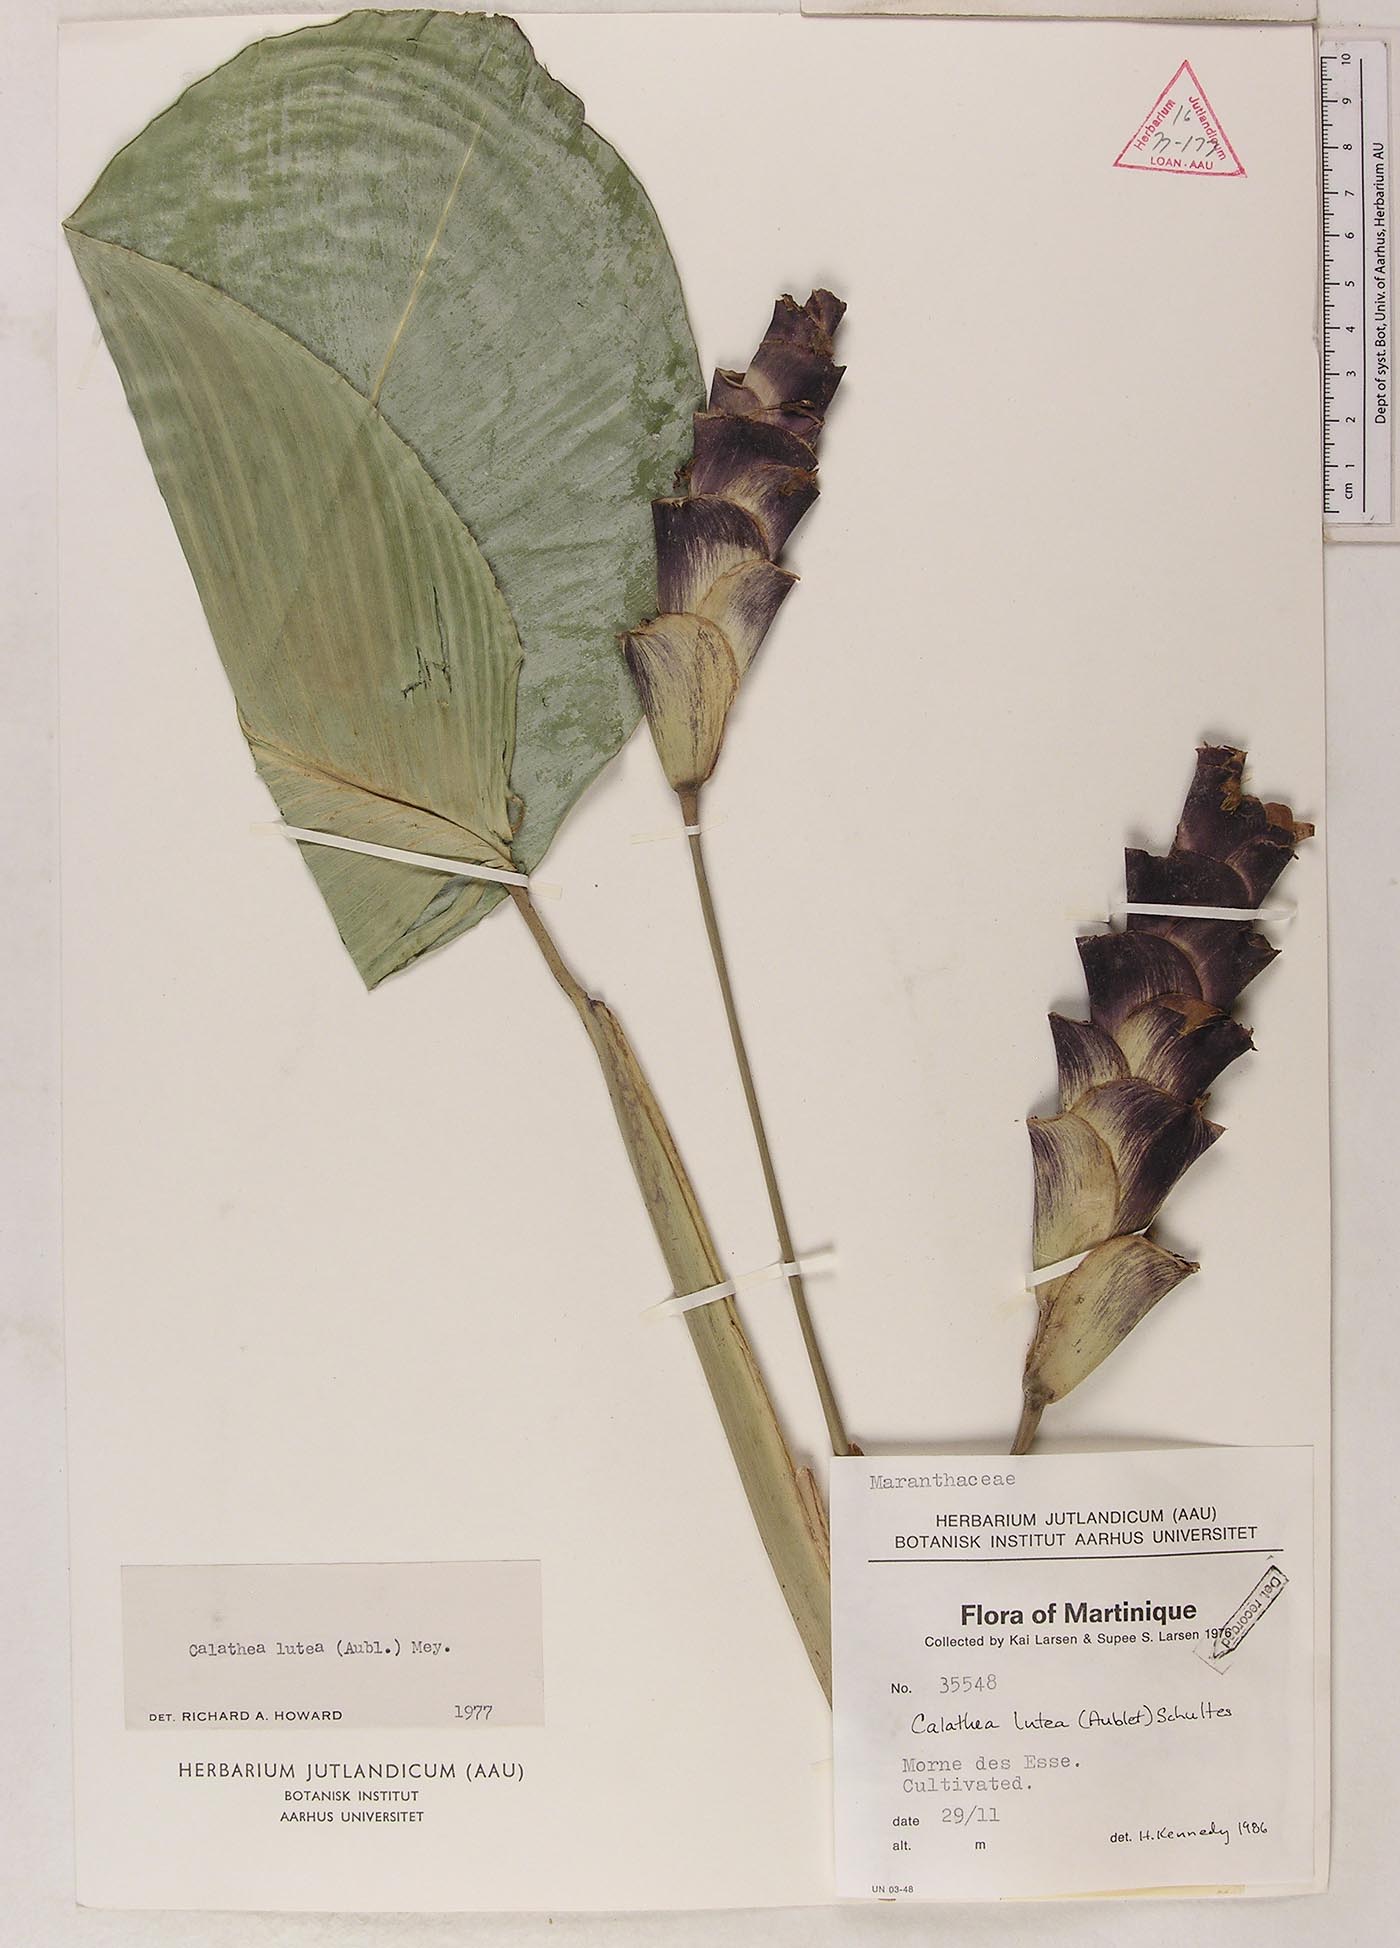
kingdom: Plantae
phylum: Tracheophyta
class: Liliopsida
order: Zingiberales
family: Marantaceae
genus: Calathea
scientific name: Calathea lutea
